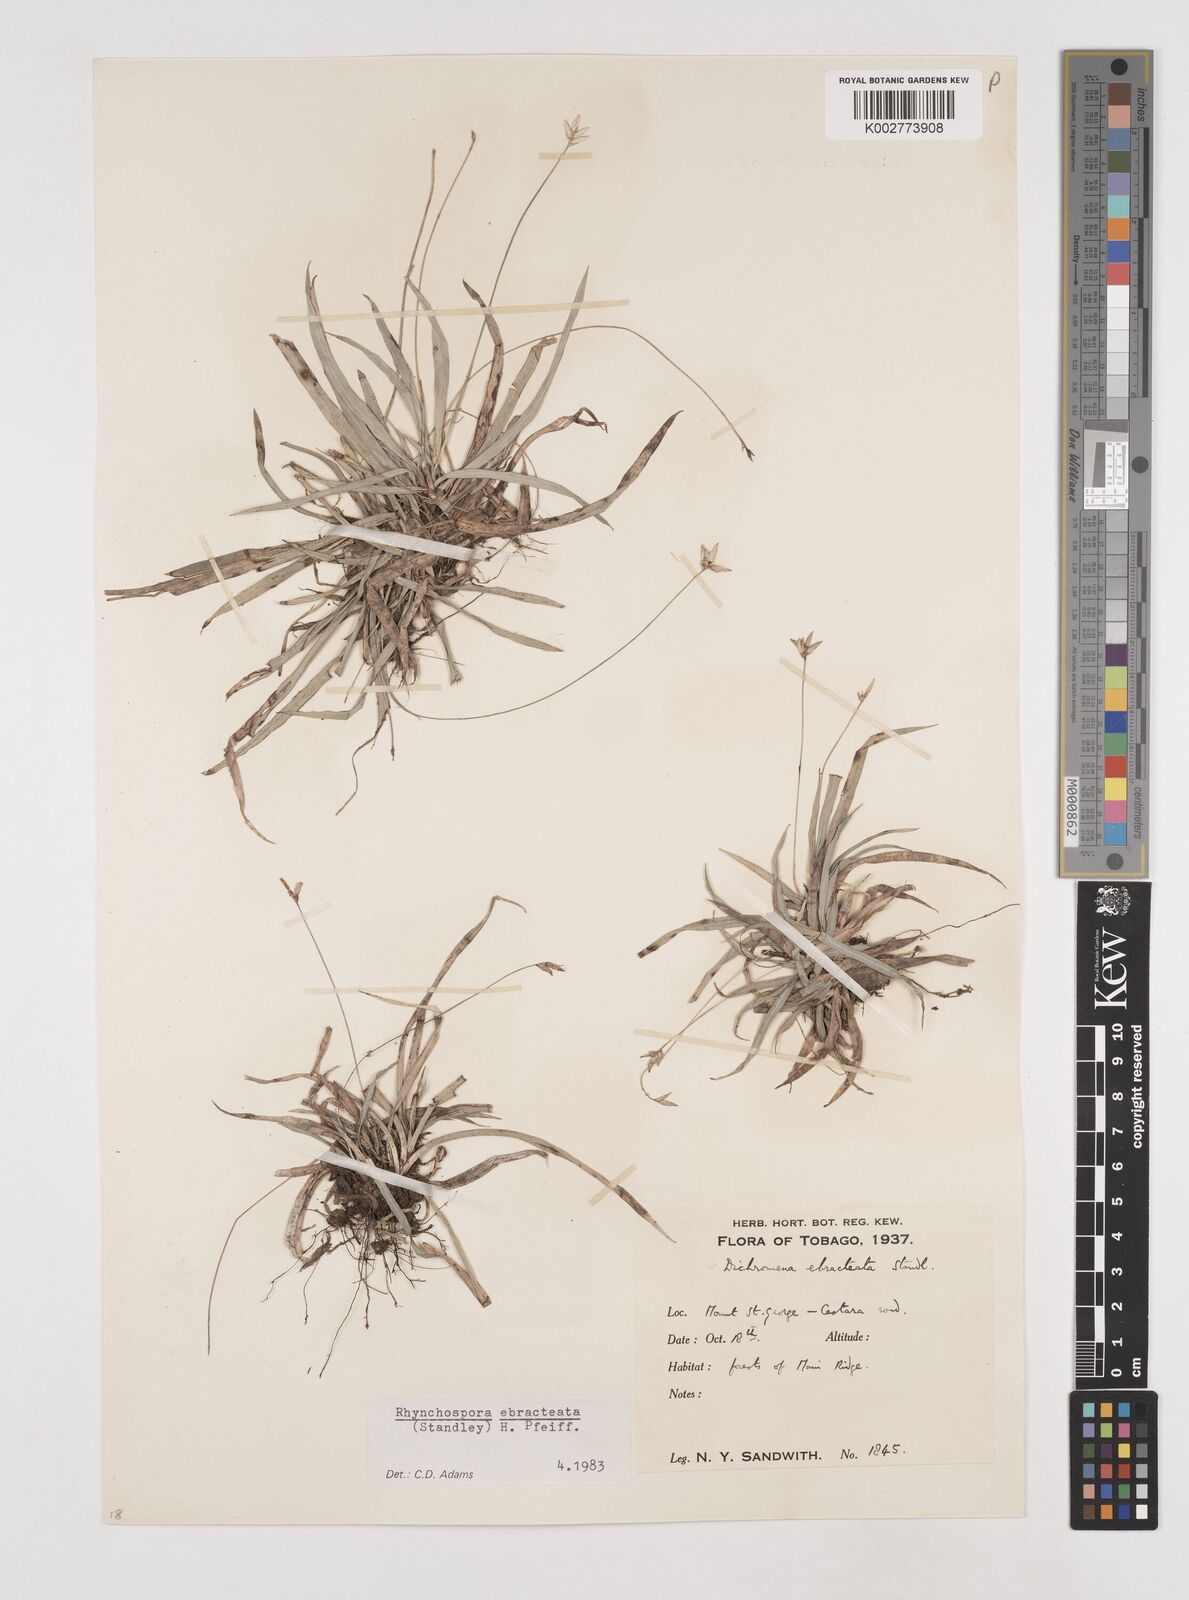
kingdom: Plantae
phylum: Tracheophyta
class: Liliopsida
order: Poales
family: Cyperaceae
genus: Rhynchospora
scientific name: Rhynchospora ebracteata
